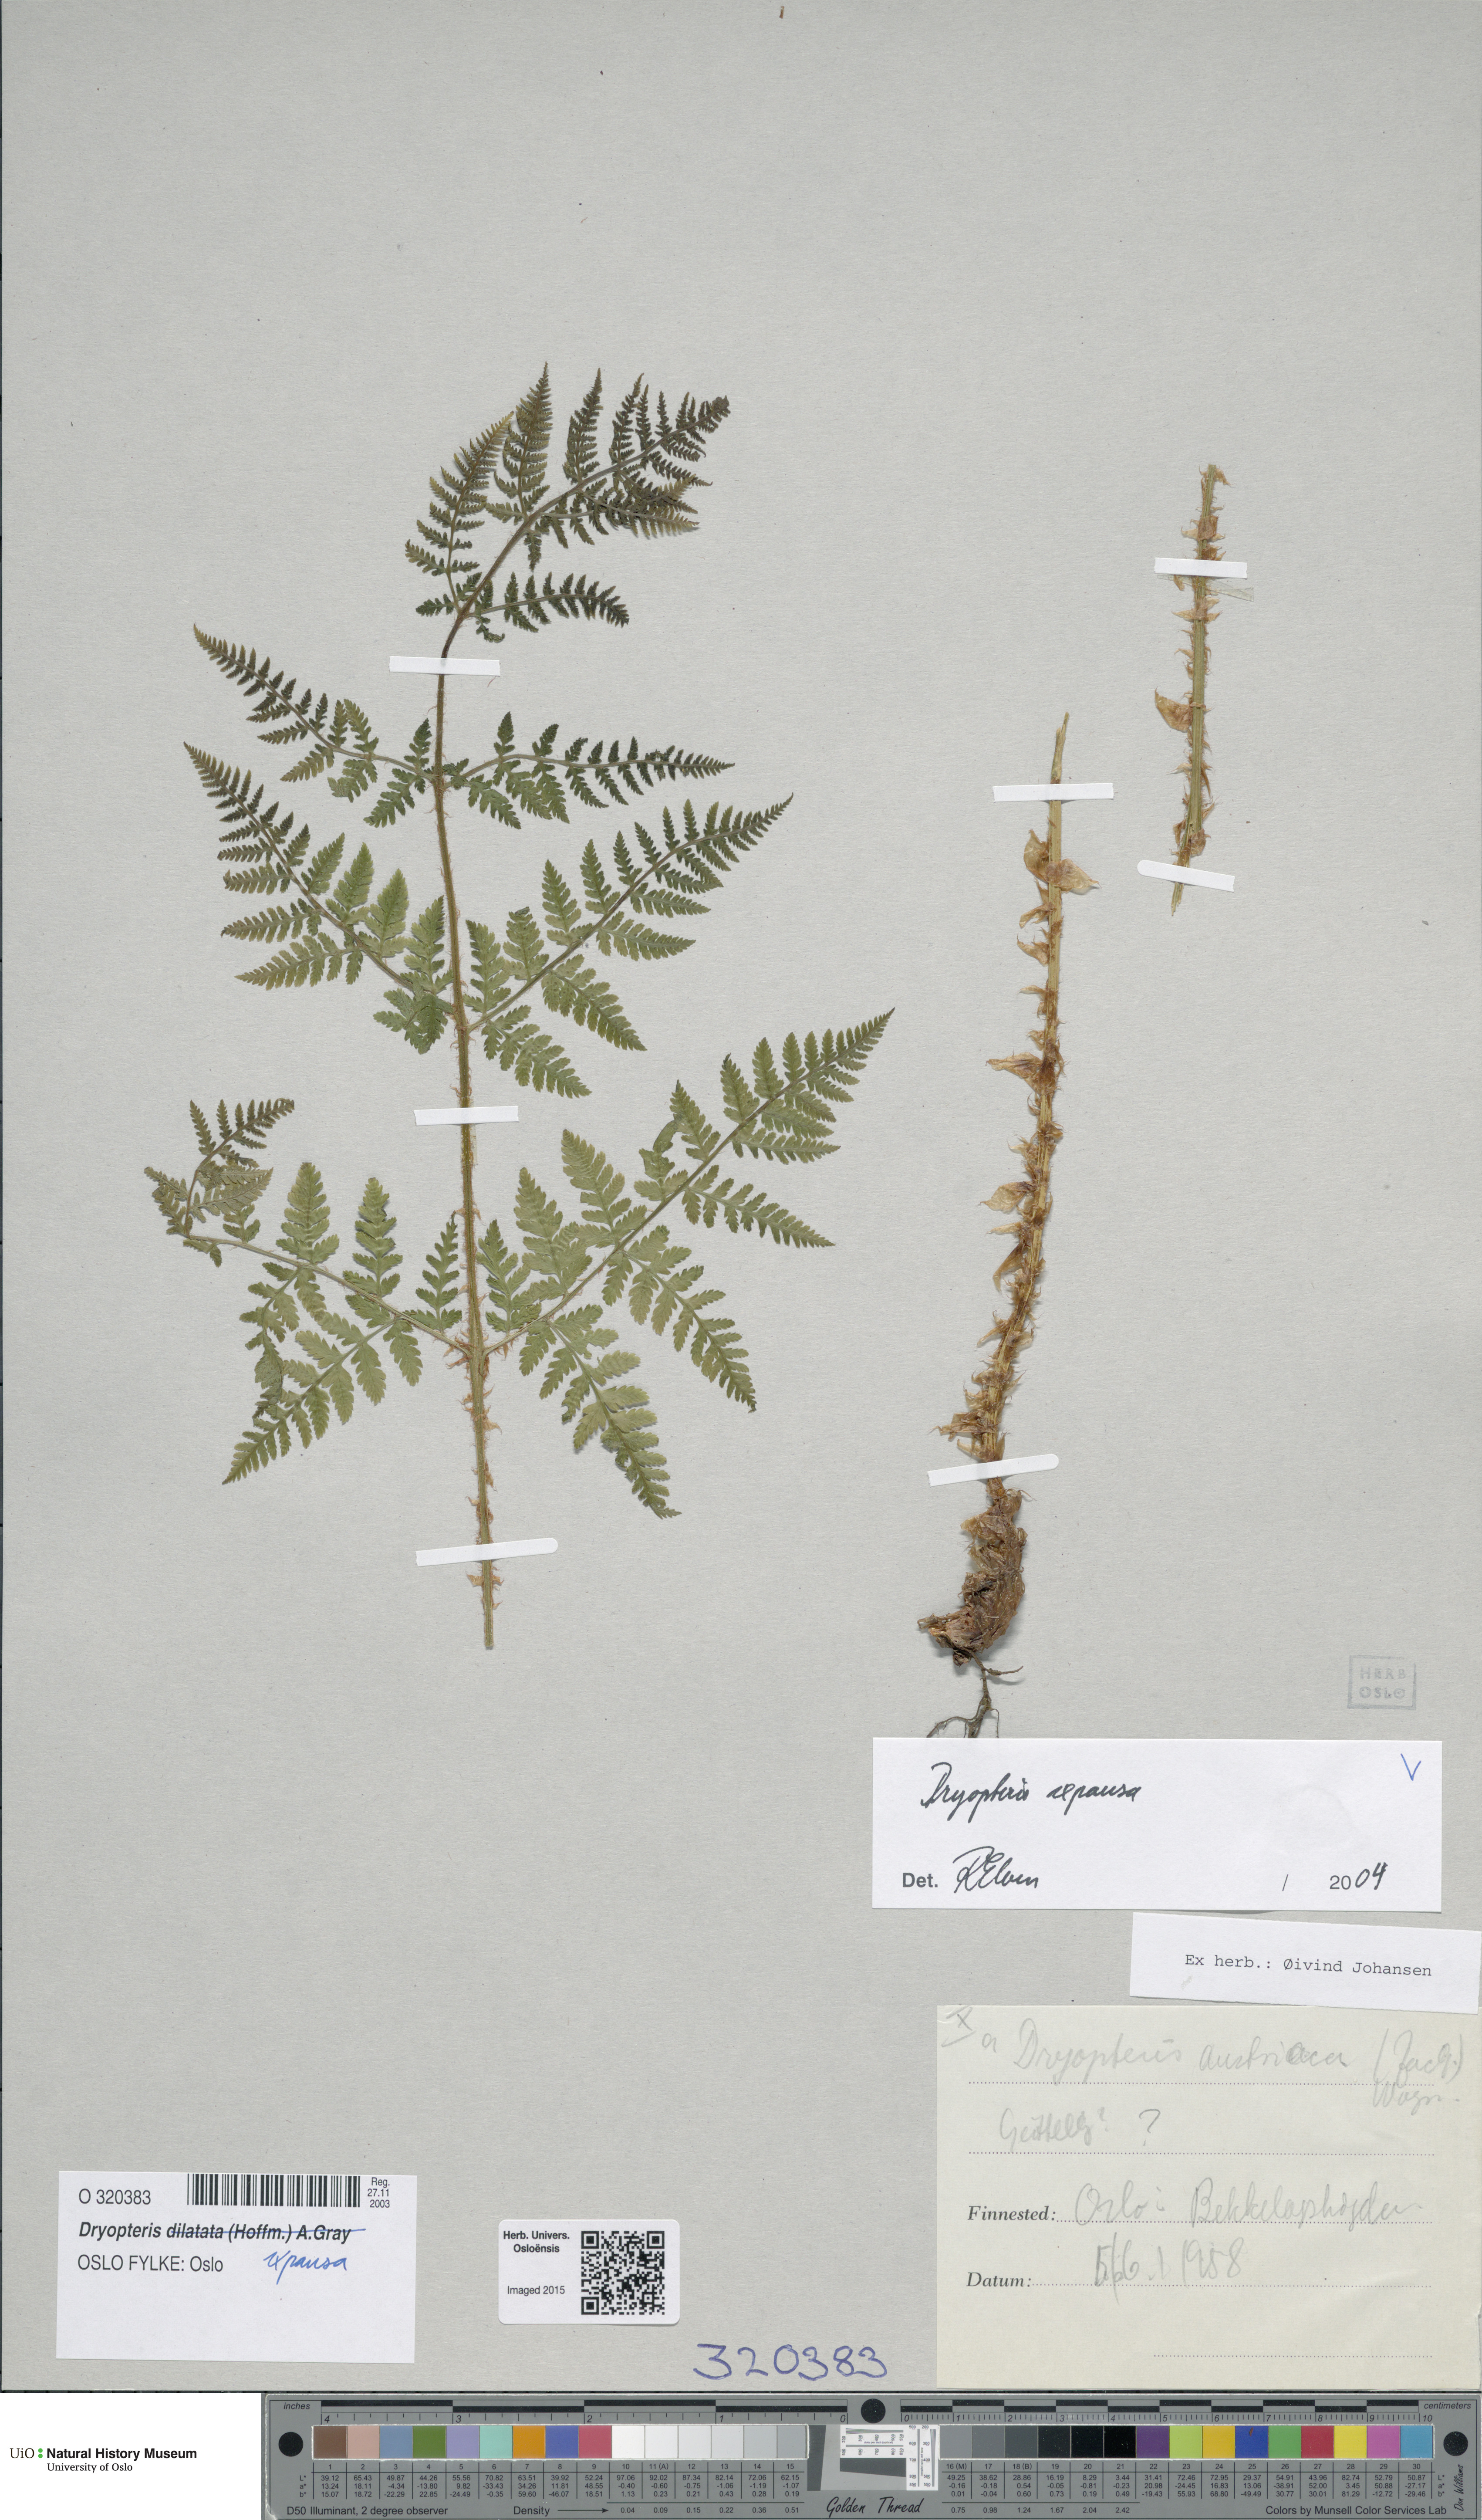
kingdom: Plantae
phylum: Tracheophyta
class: Polypodiopsida
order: Polypodiales
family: Dryopteridaceae
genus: Dryopteris
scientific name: Dryopteris expansa
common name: Northern buckler fern
